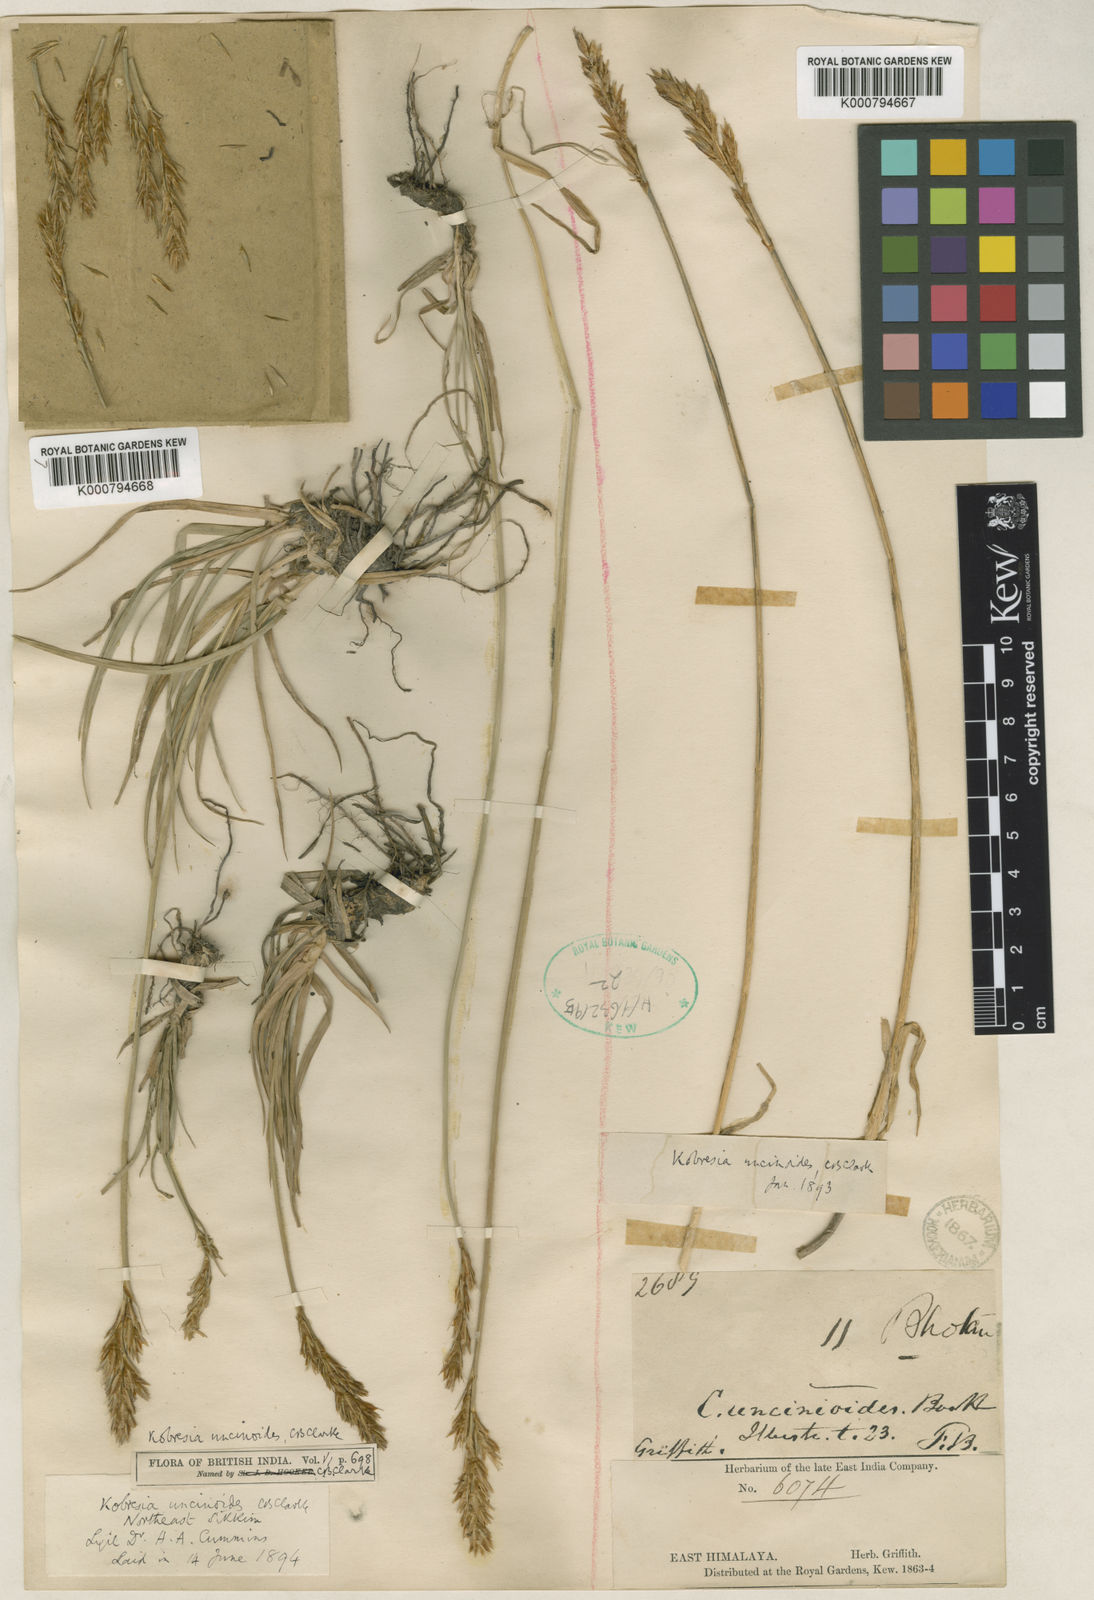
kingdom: Plantae
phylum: Tracheophyta
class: Liliopsida
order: Poales
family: Cyperaceae
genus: Carex
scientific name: Carex uncinioides
